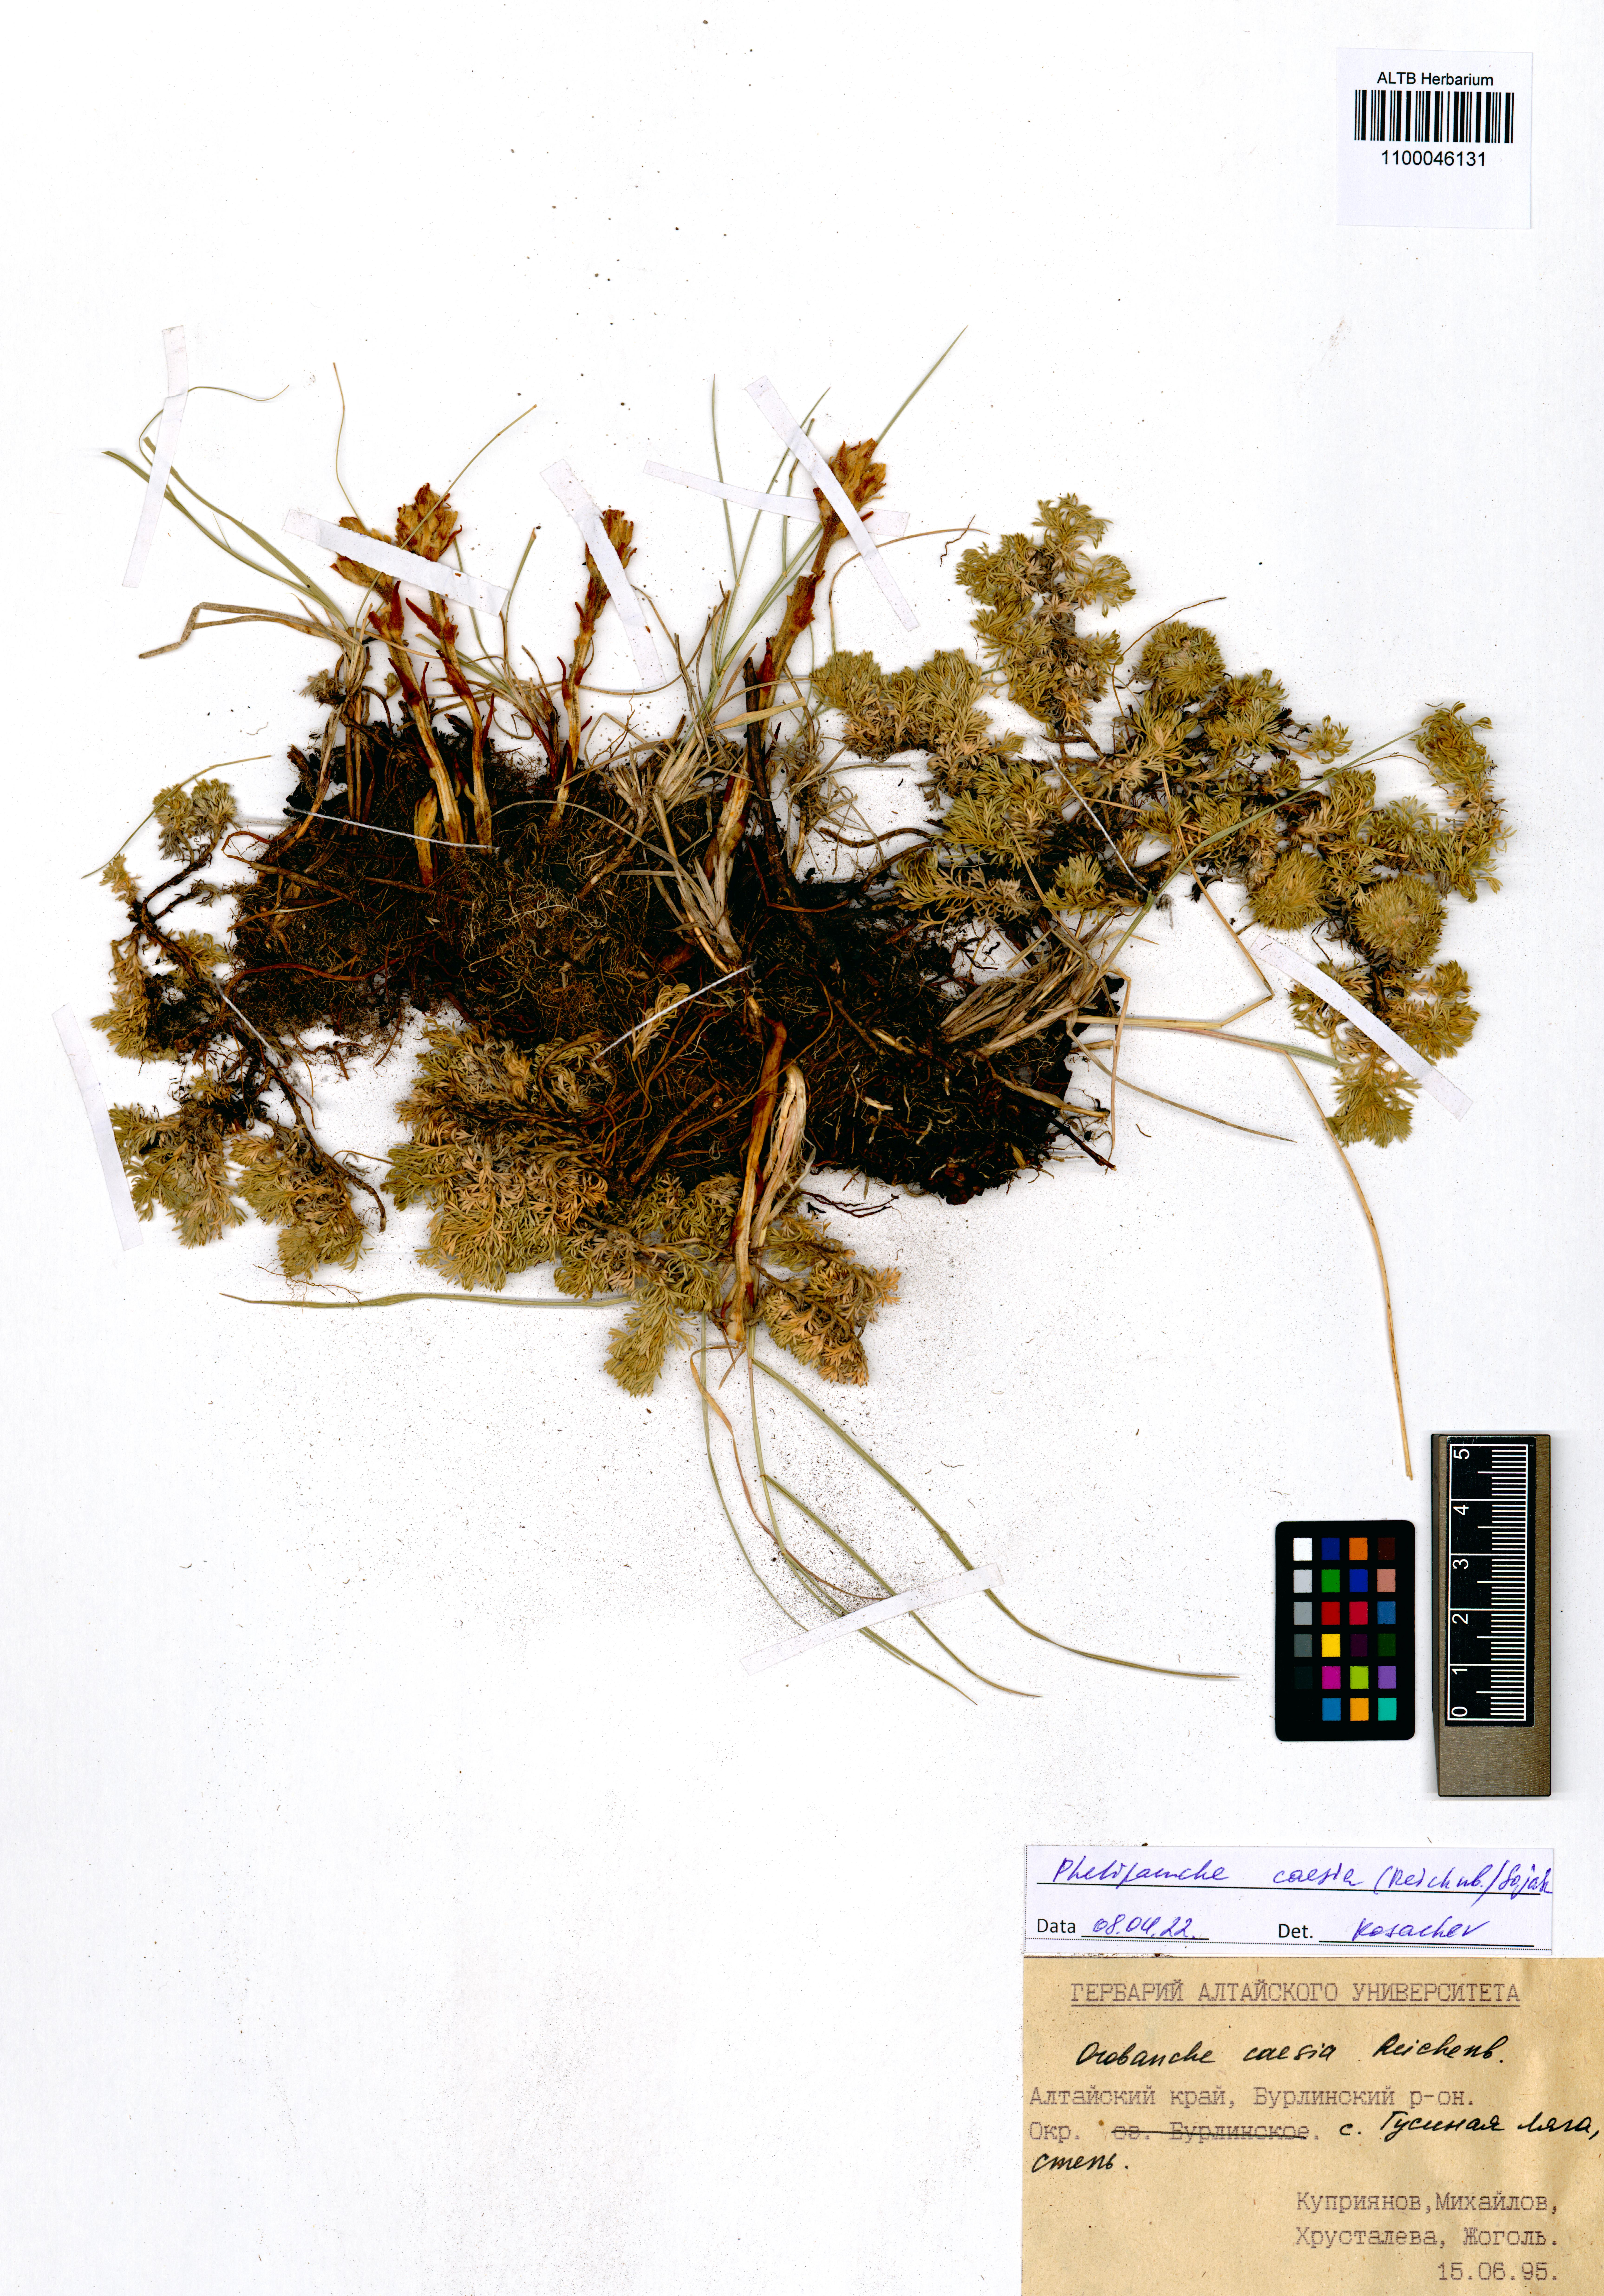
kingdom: Plantae
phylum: Tracheophyta
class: Magnoliopsida
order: Lamiales
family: Orobanchaceae
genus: Phelipanche
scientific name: Phelipanche caesia
